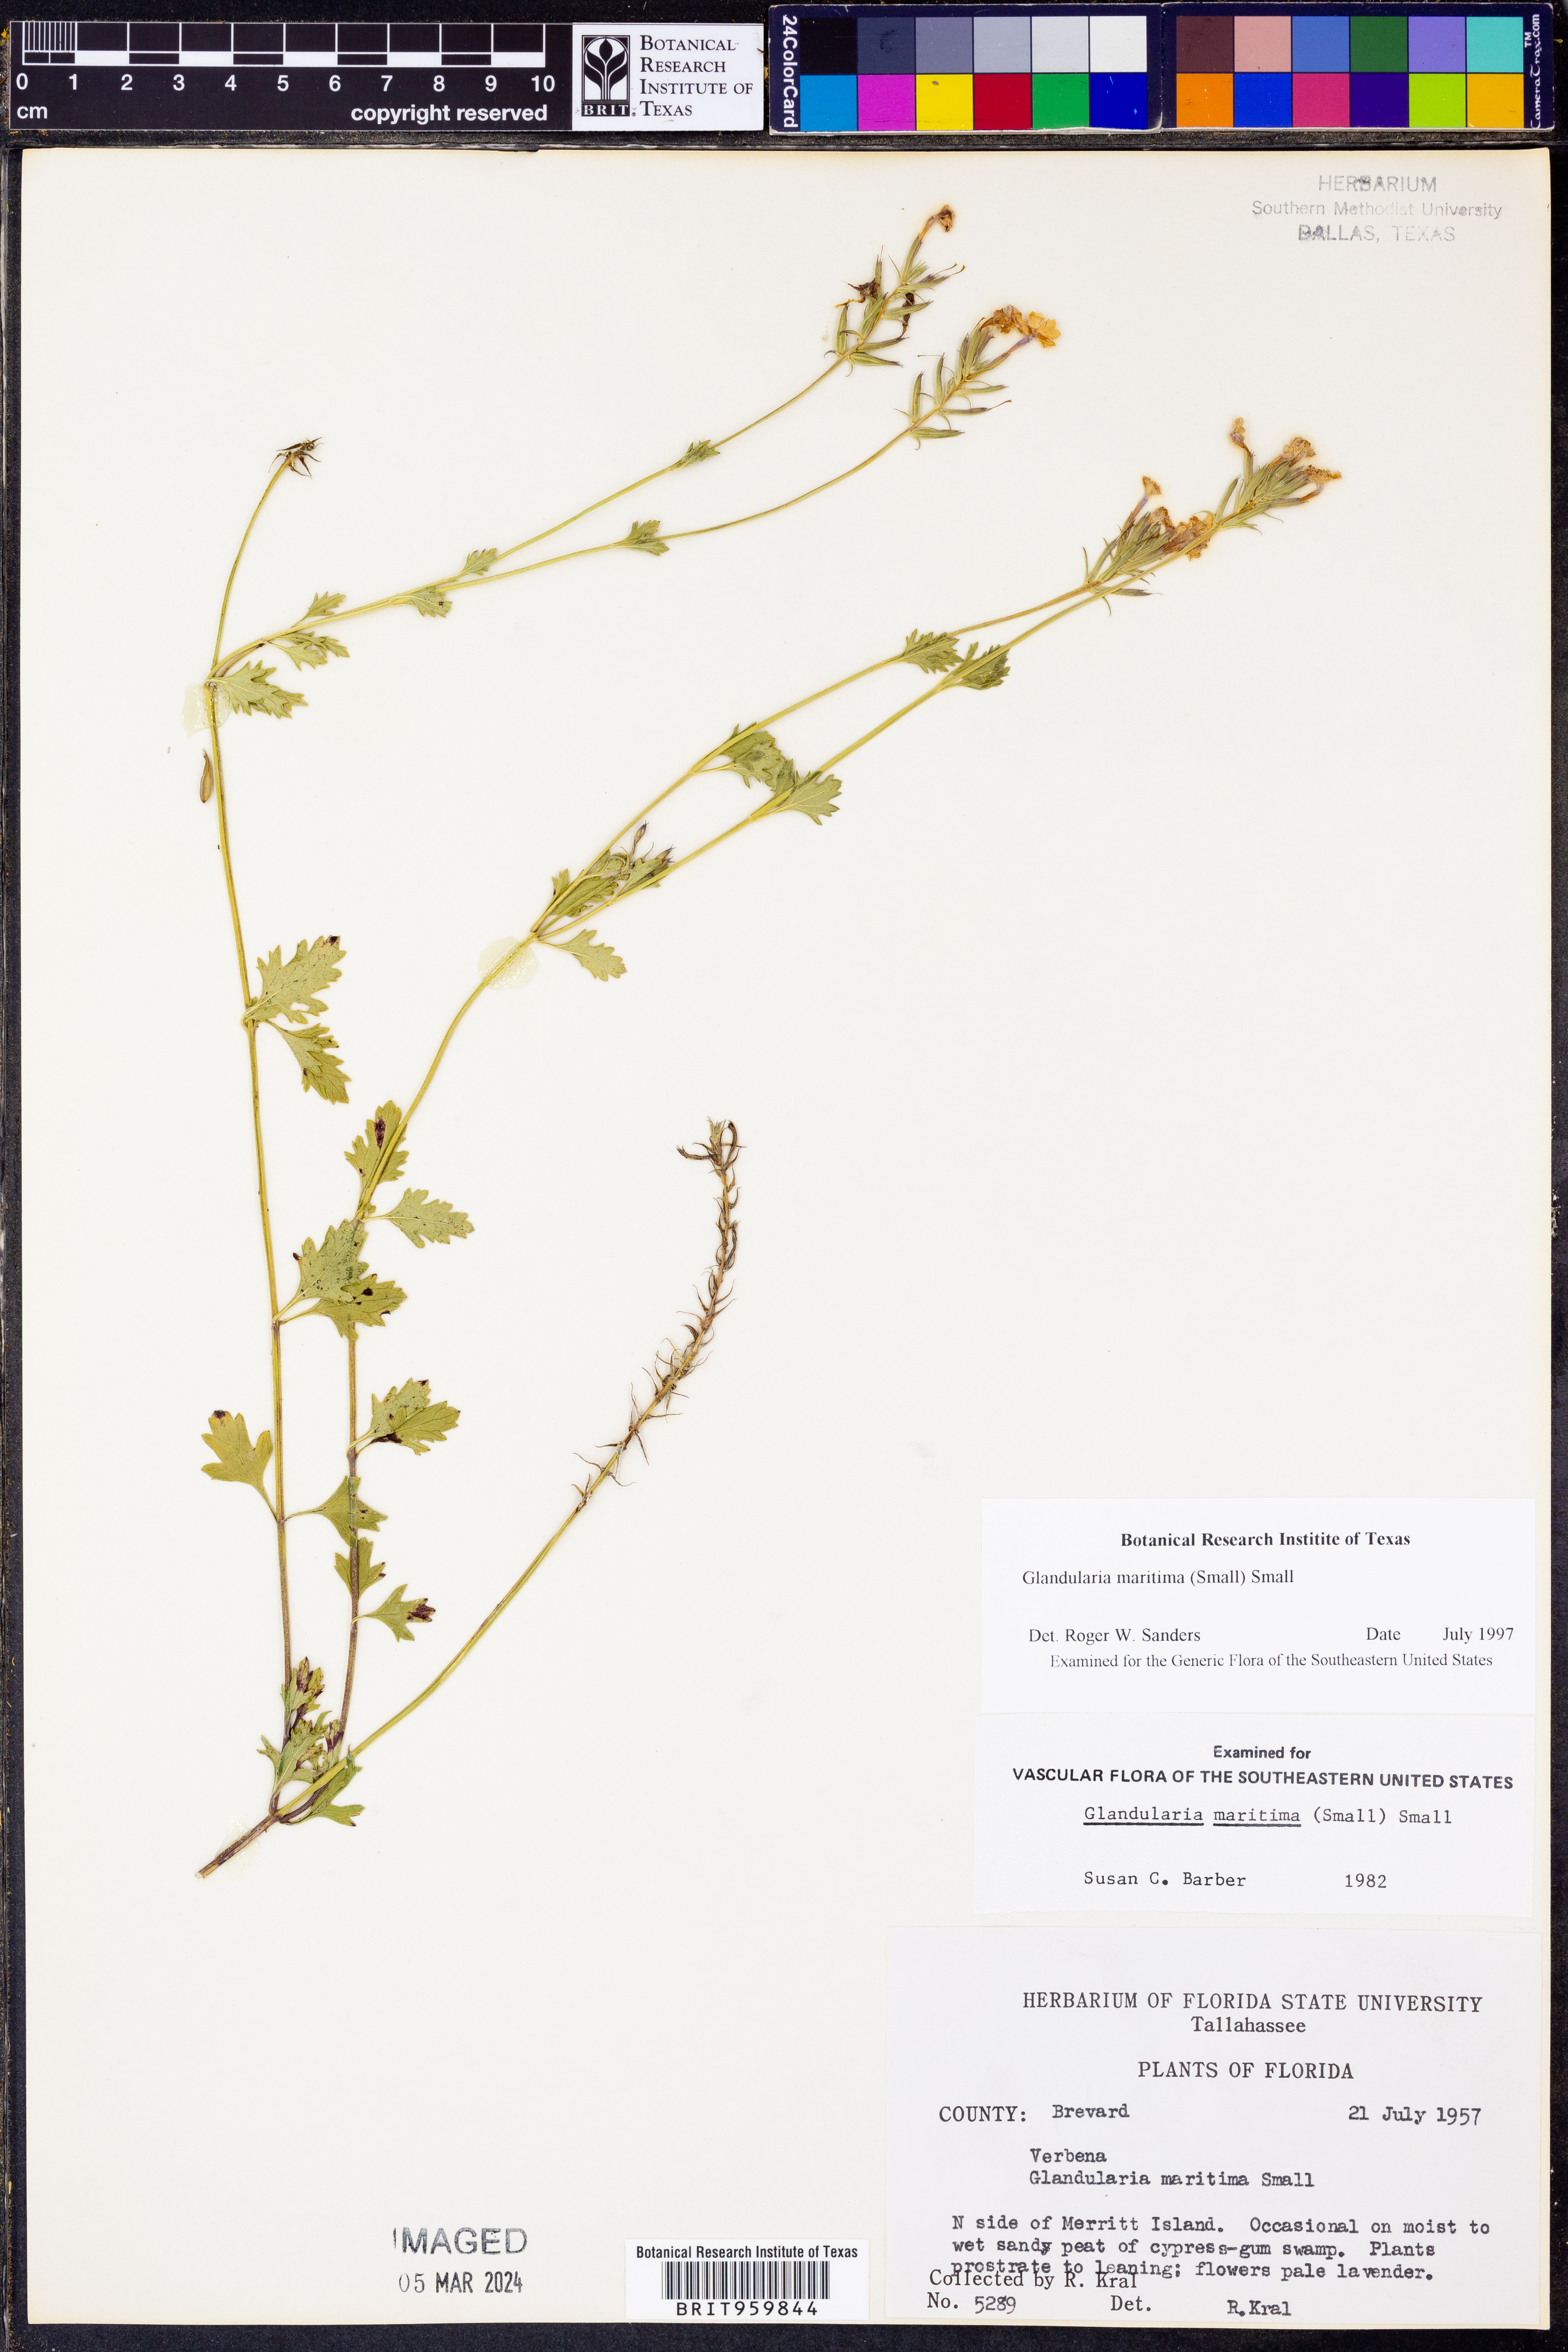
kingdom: Plantae
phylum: Tracheophyta
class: Magnoliopsida
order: Lamiales
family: Verbenaceae
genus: Verbena
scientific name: Verbena maritima
